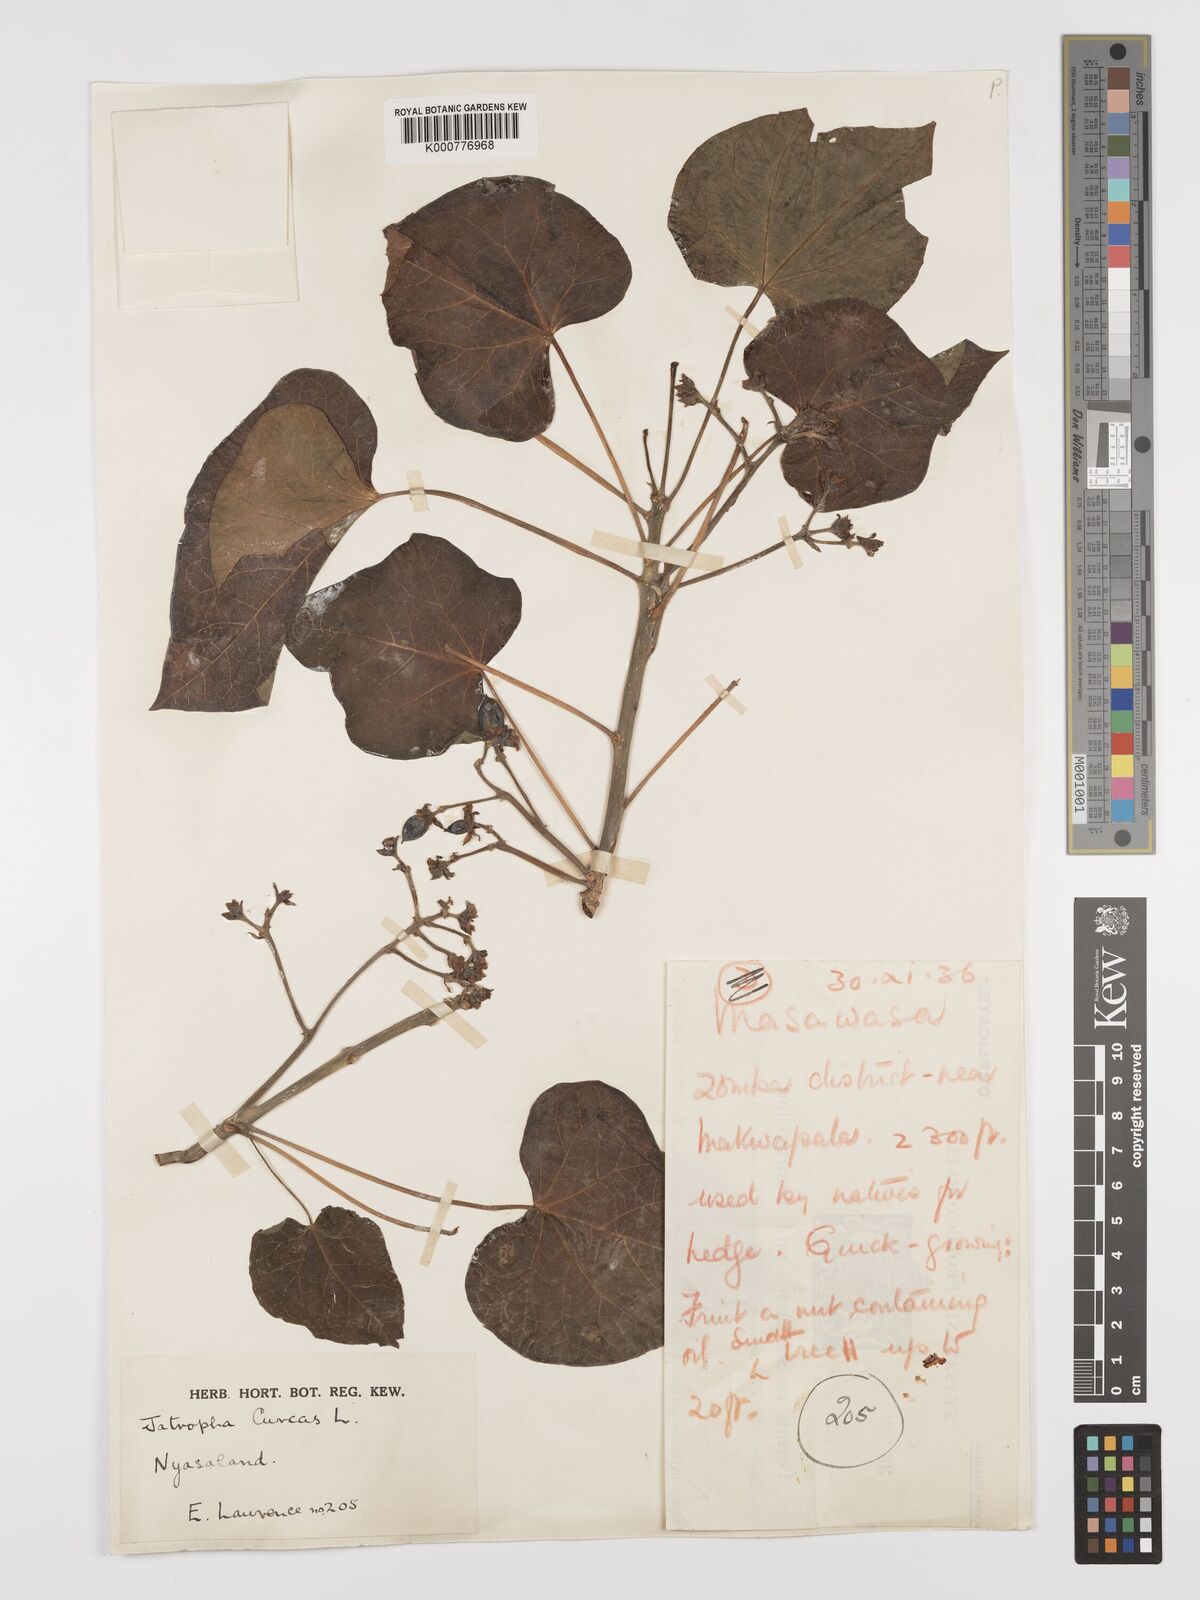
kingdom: Plantae
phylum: Tracheophyta
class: Magnoliopsida
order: Malpighiales
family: Euphorbiaceae
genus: Jatropha
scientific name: Jatropha curcas
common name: Barbados nut
